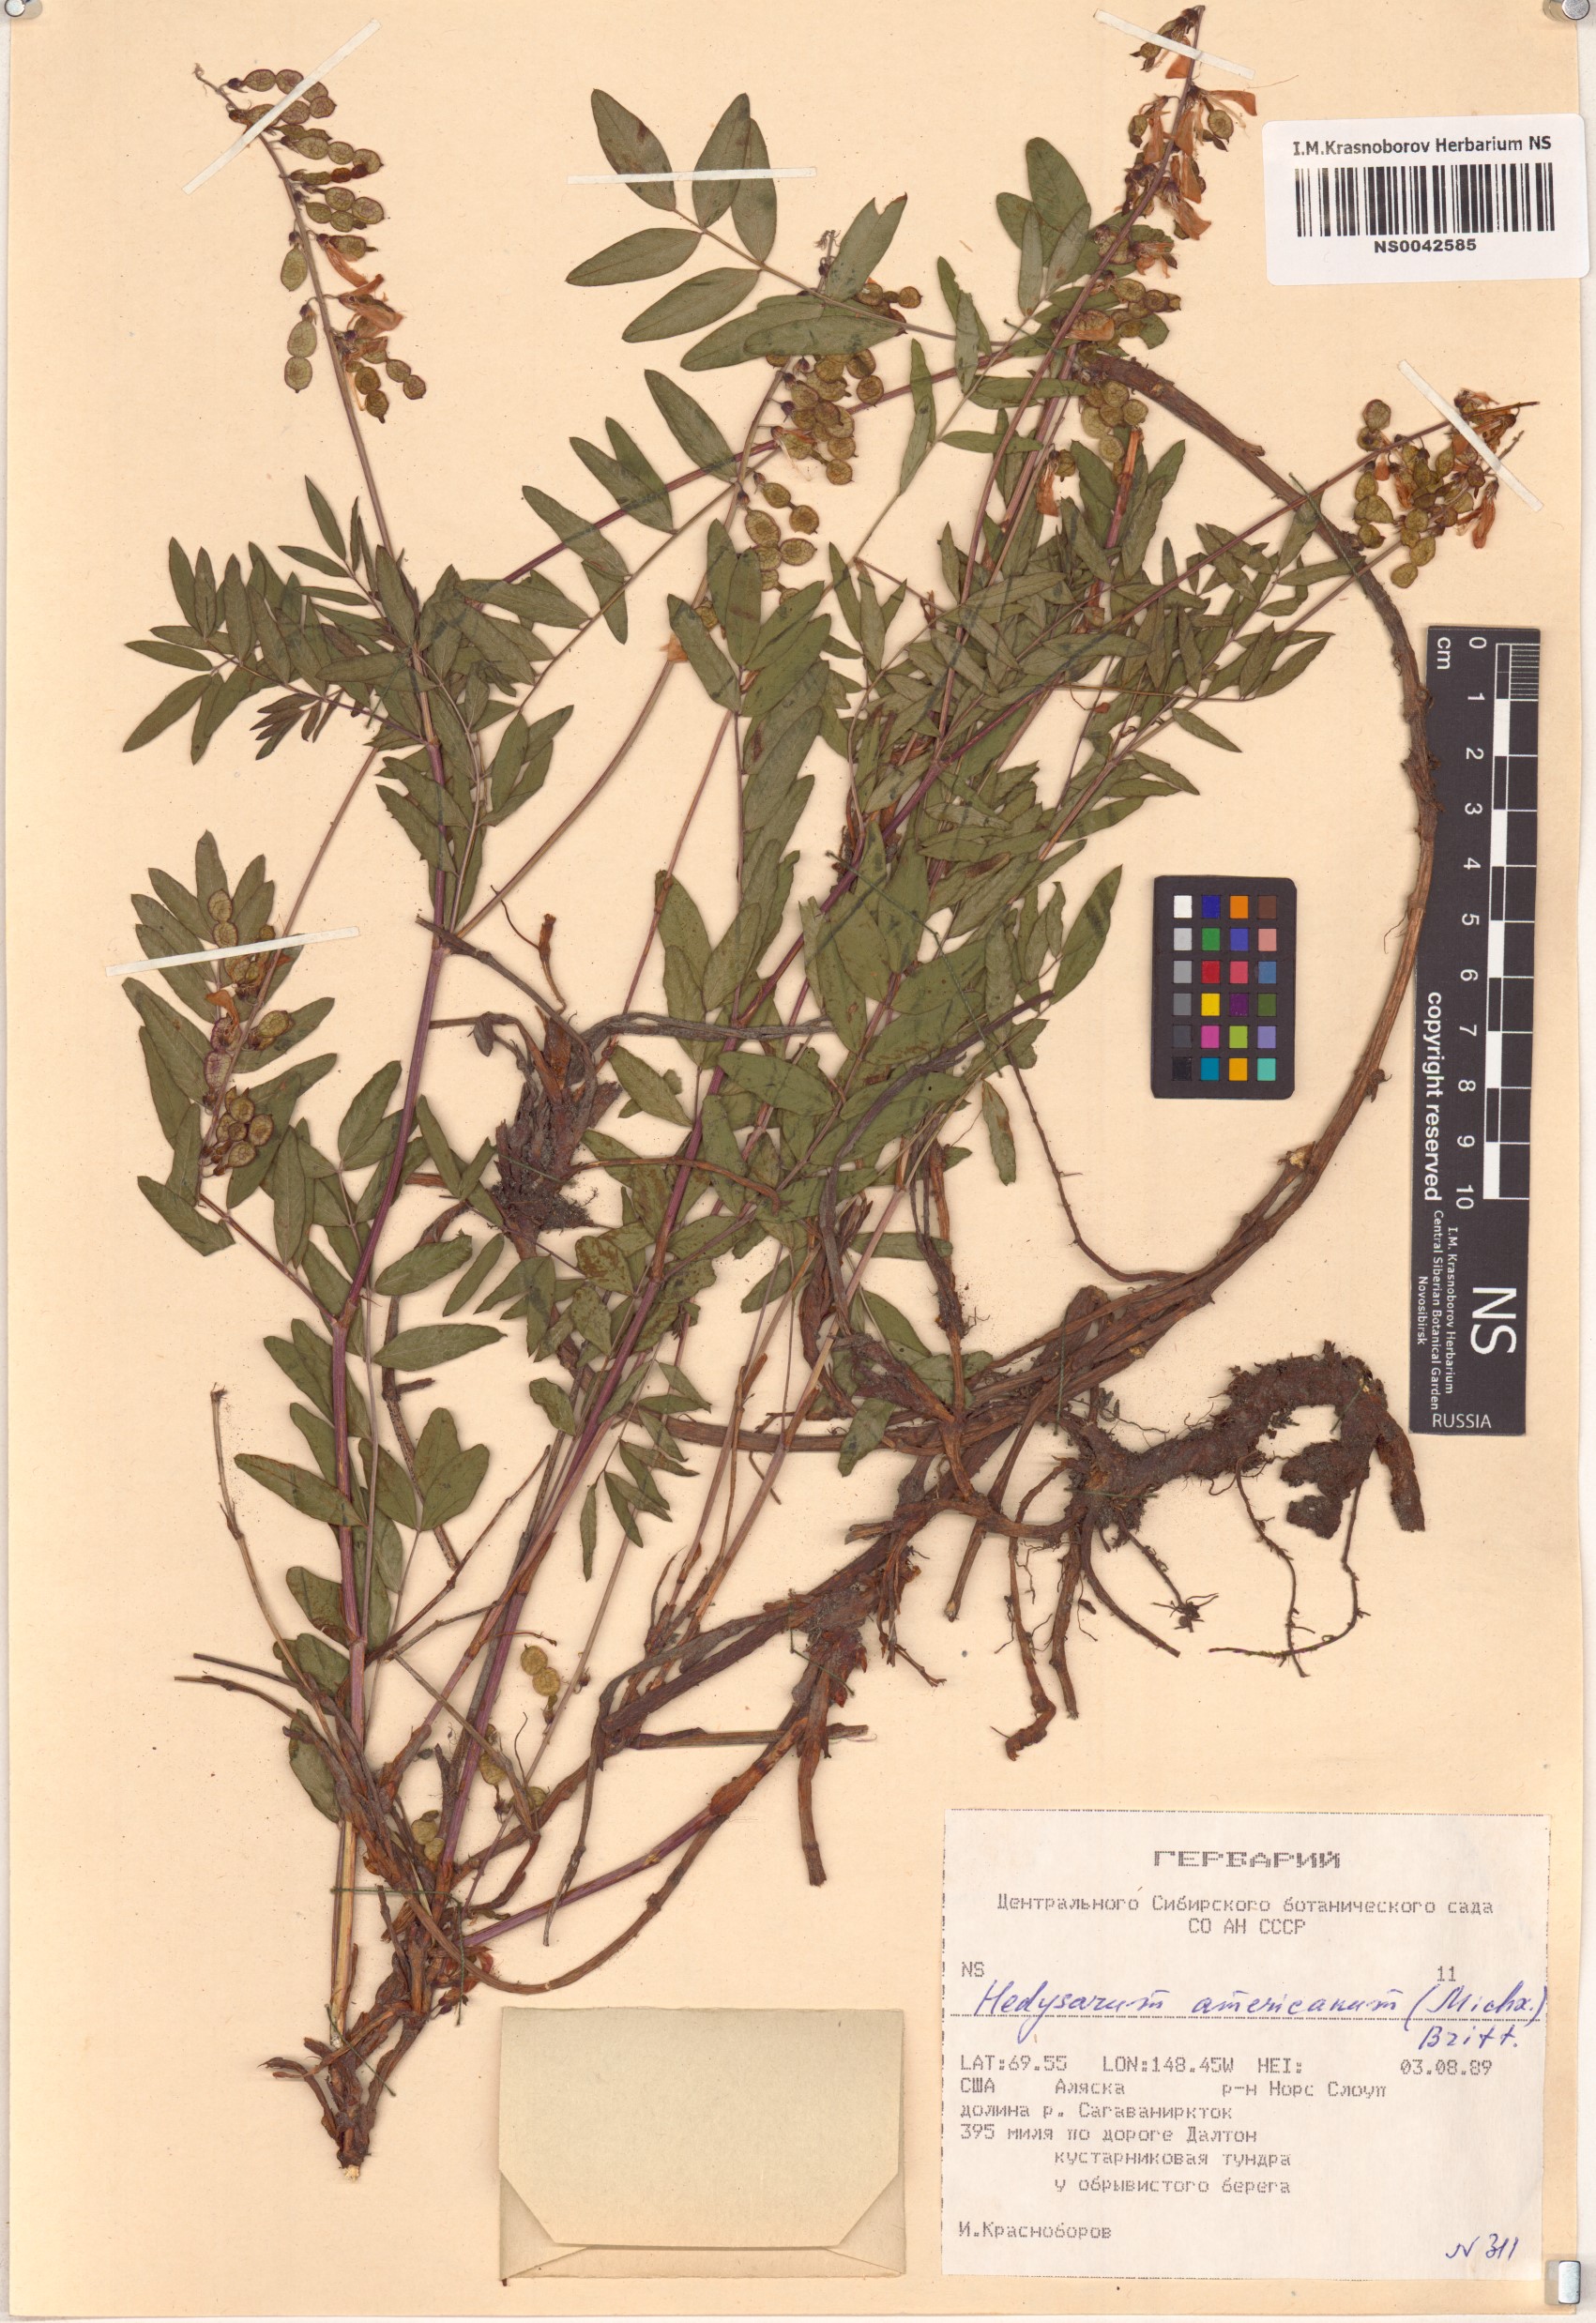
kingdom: Plantae
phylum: Tracheophyta
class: Magnoliopsida
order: Fabales
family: Fabaceae
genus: Hedysarum
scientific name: Hedysarum americanum
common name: Alpine hedysarum
